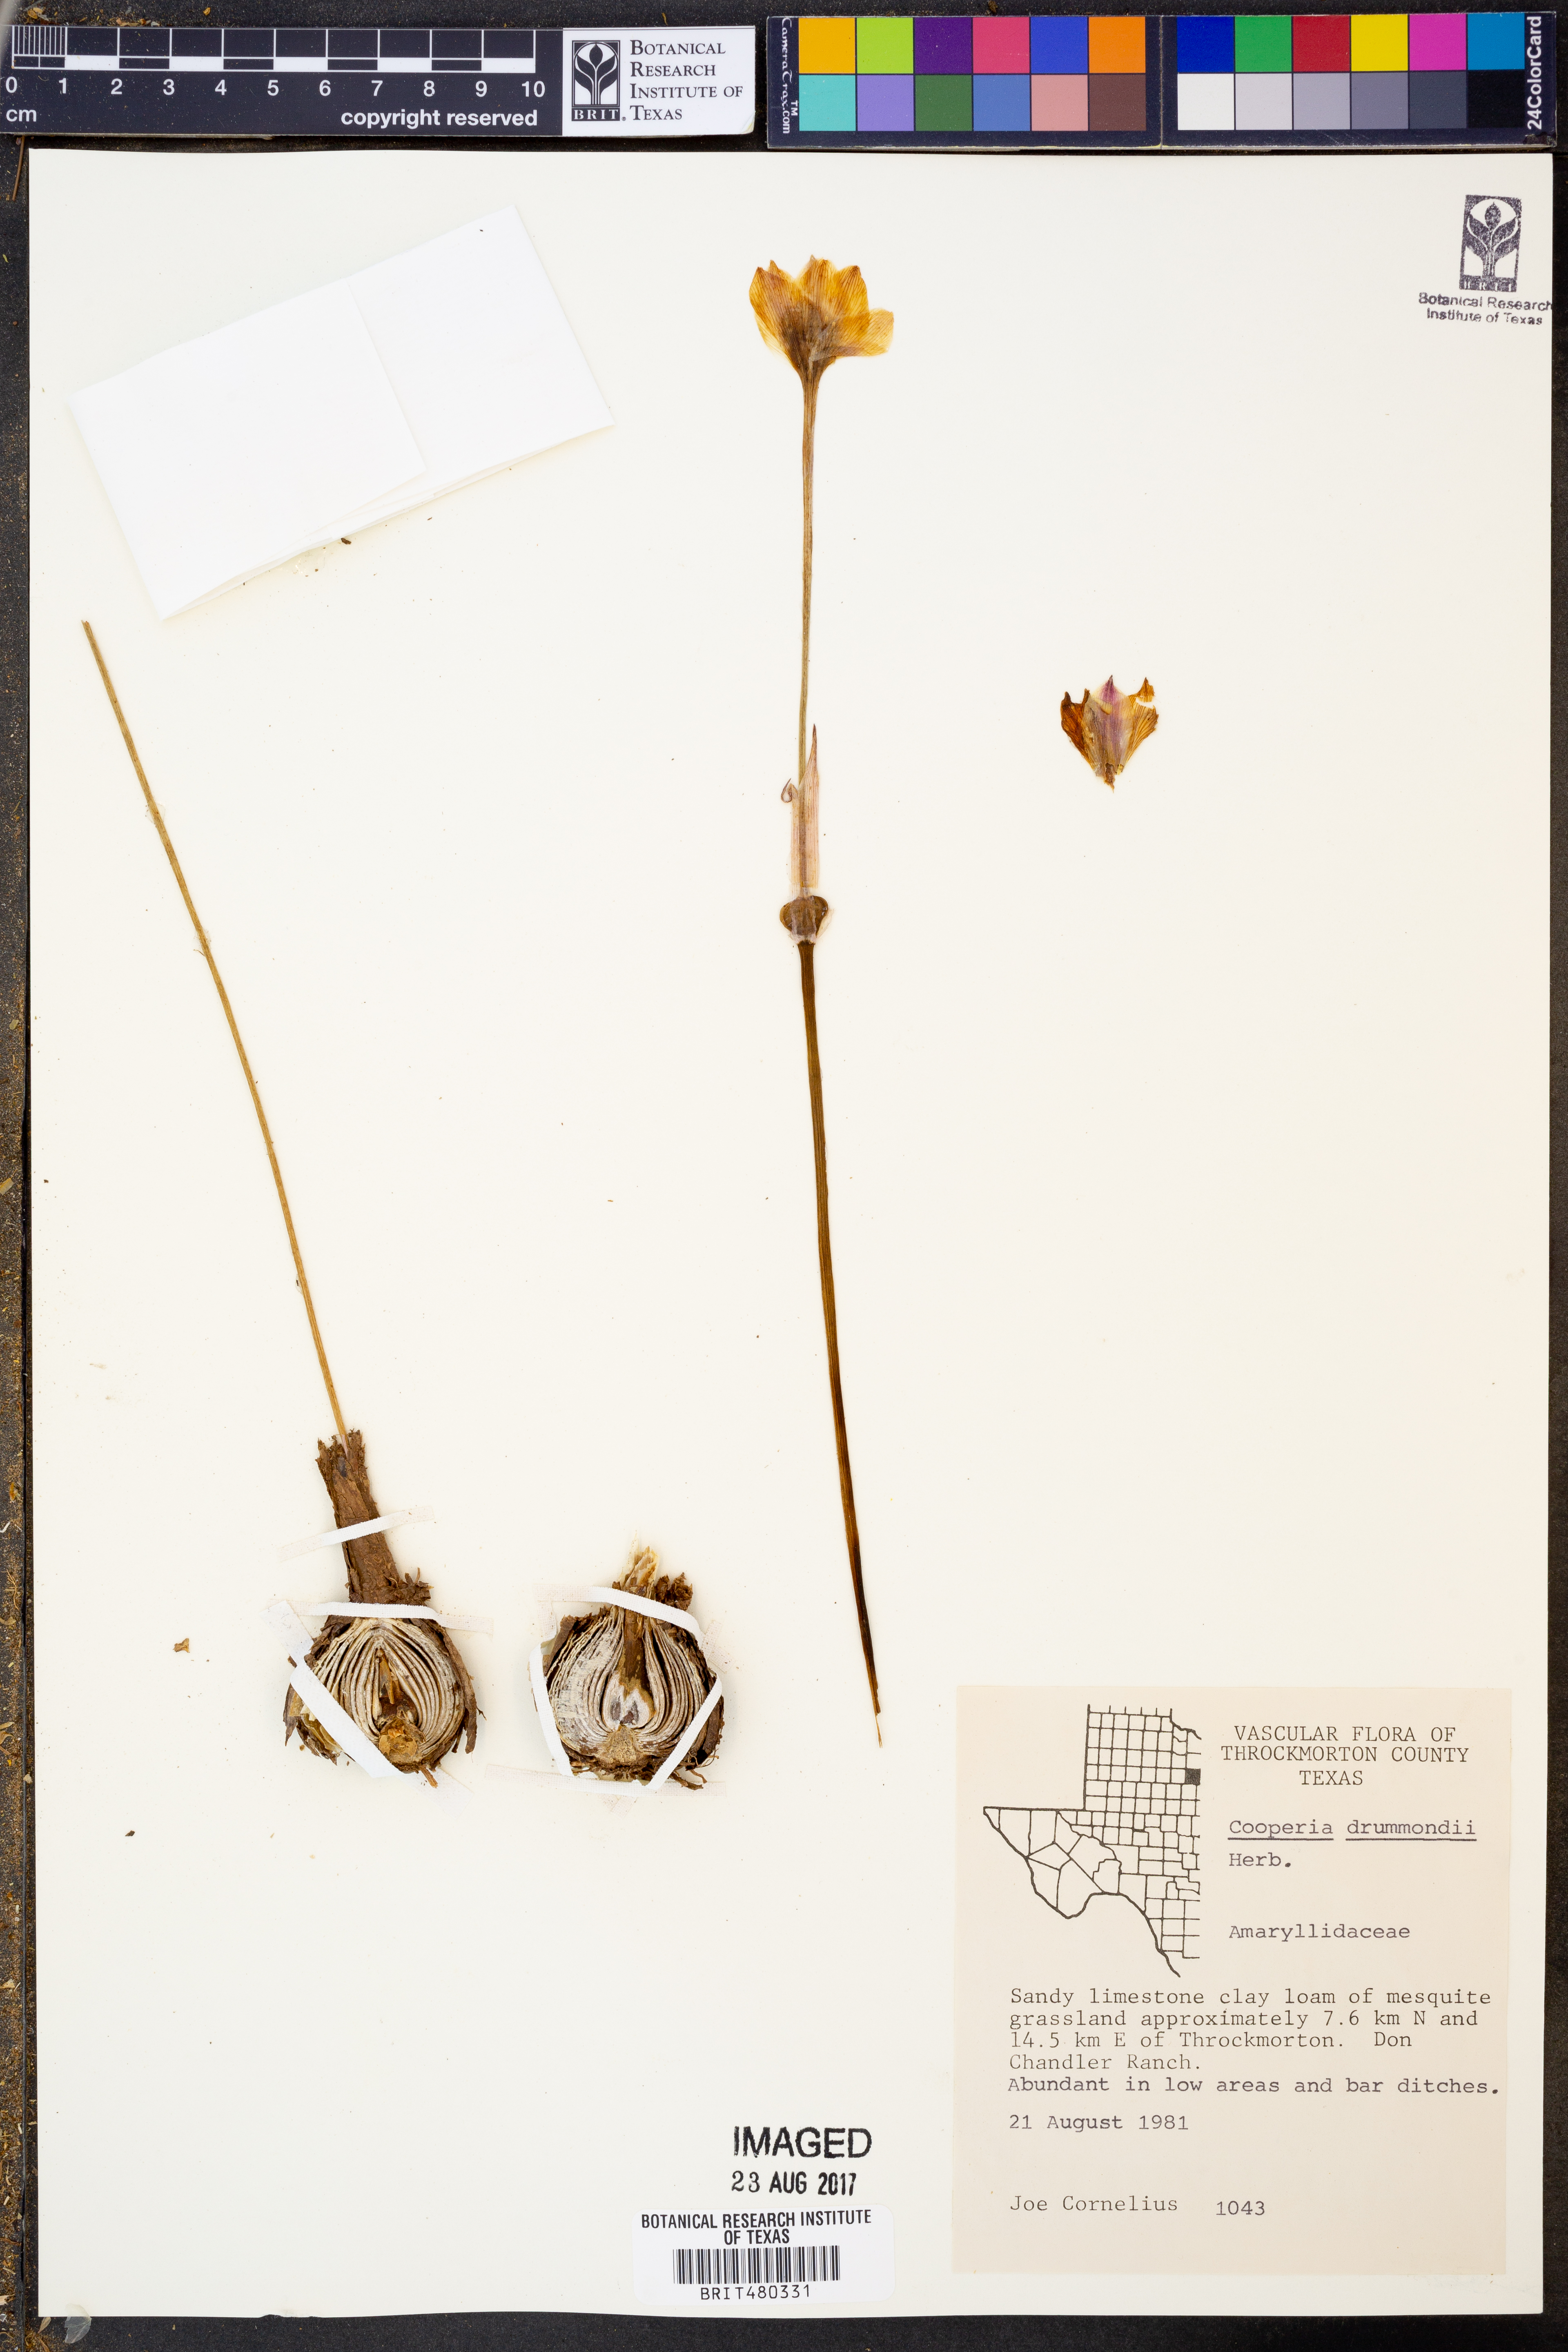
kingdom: Plantae
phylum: Tracheophyta
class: Liliopsida
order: Asparagales
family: Amaryllidaceae
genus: Zephyranthes
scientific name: Zephyranthes chlorosolen
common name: Evening rain-lily
